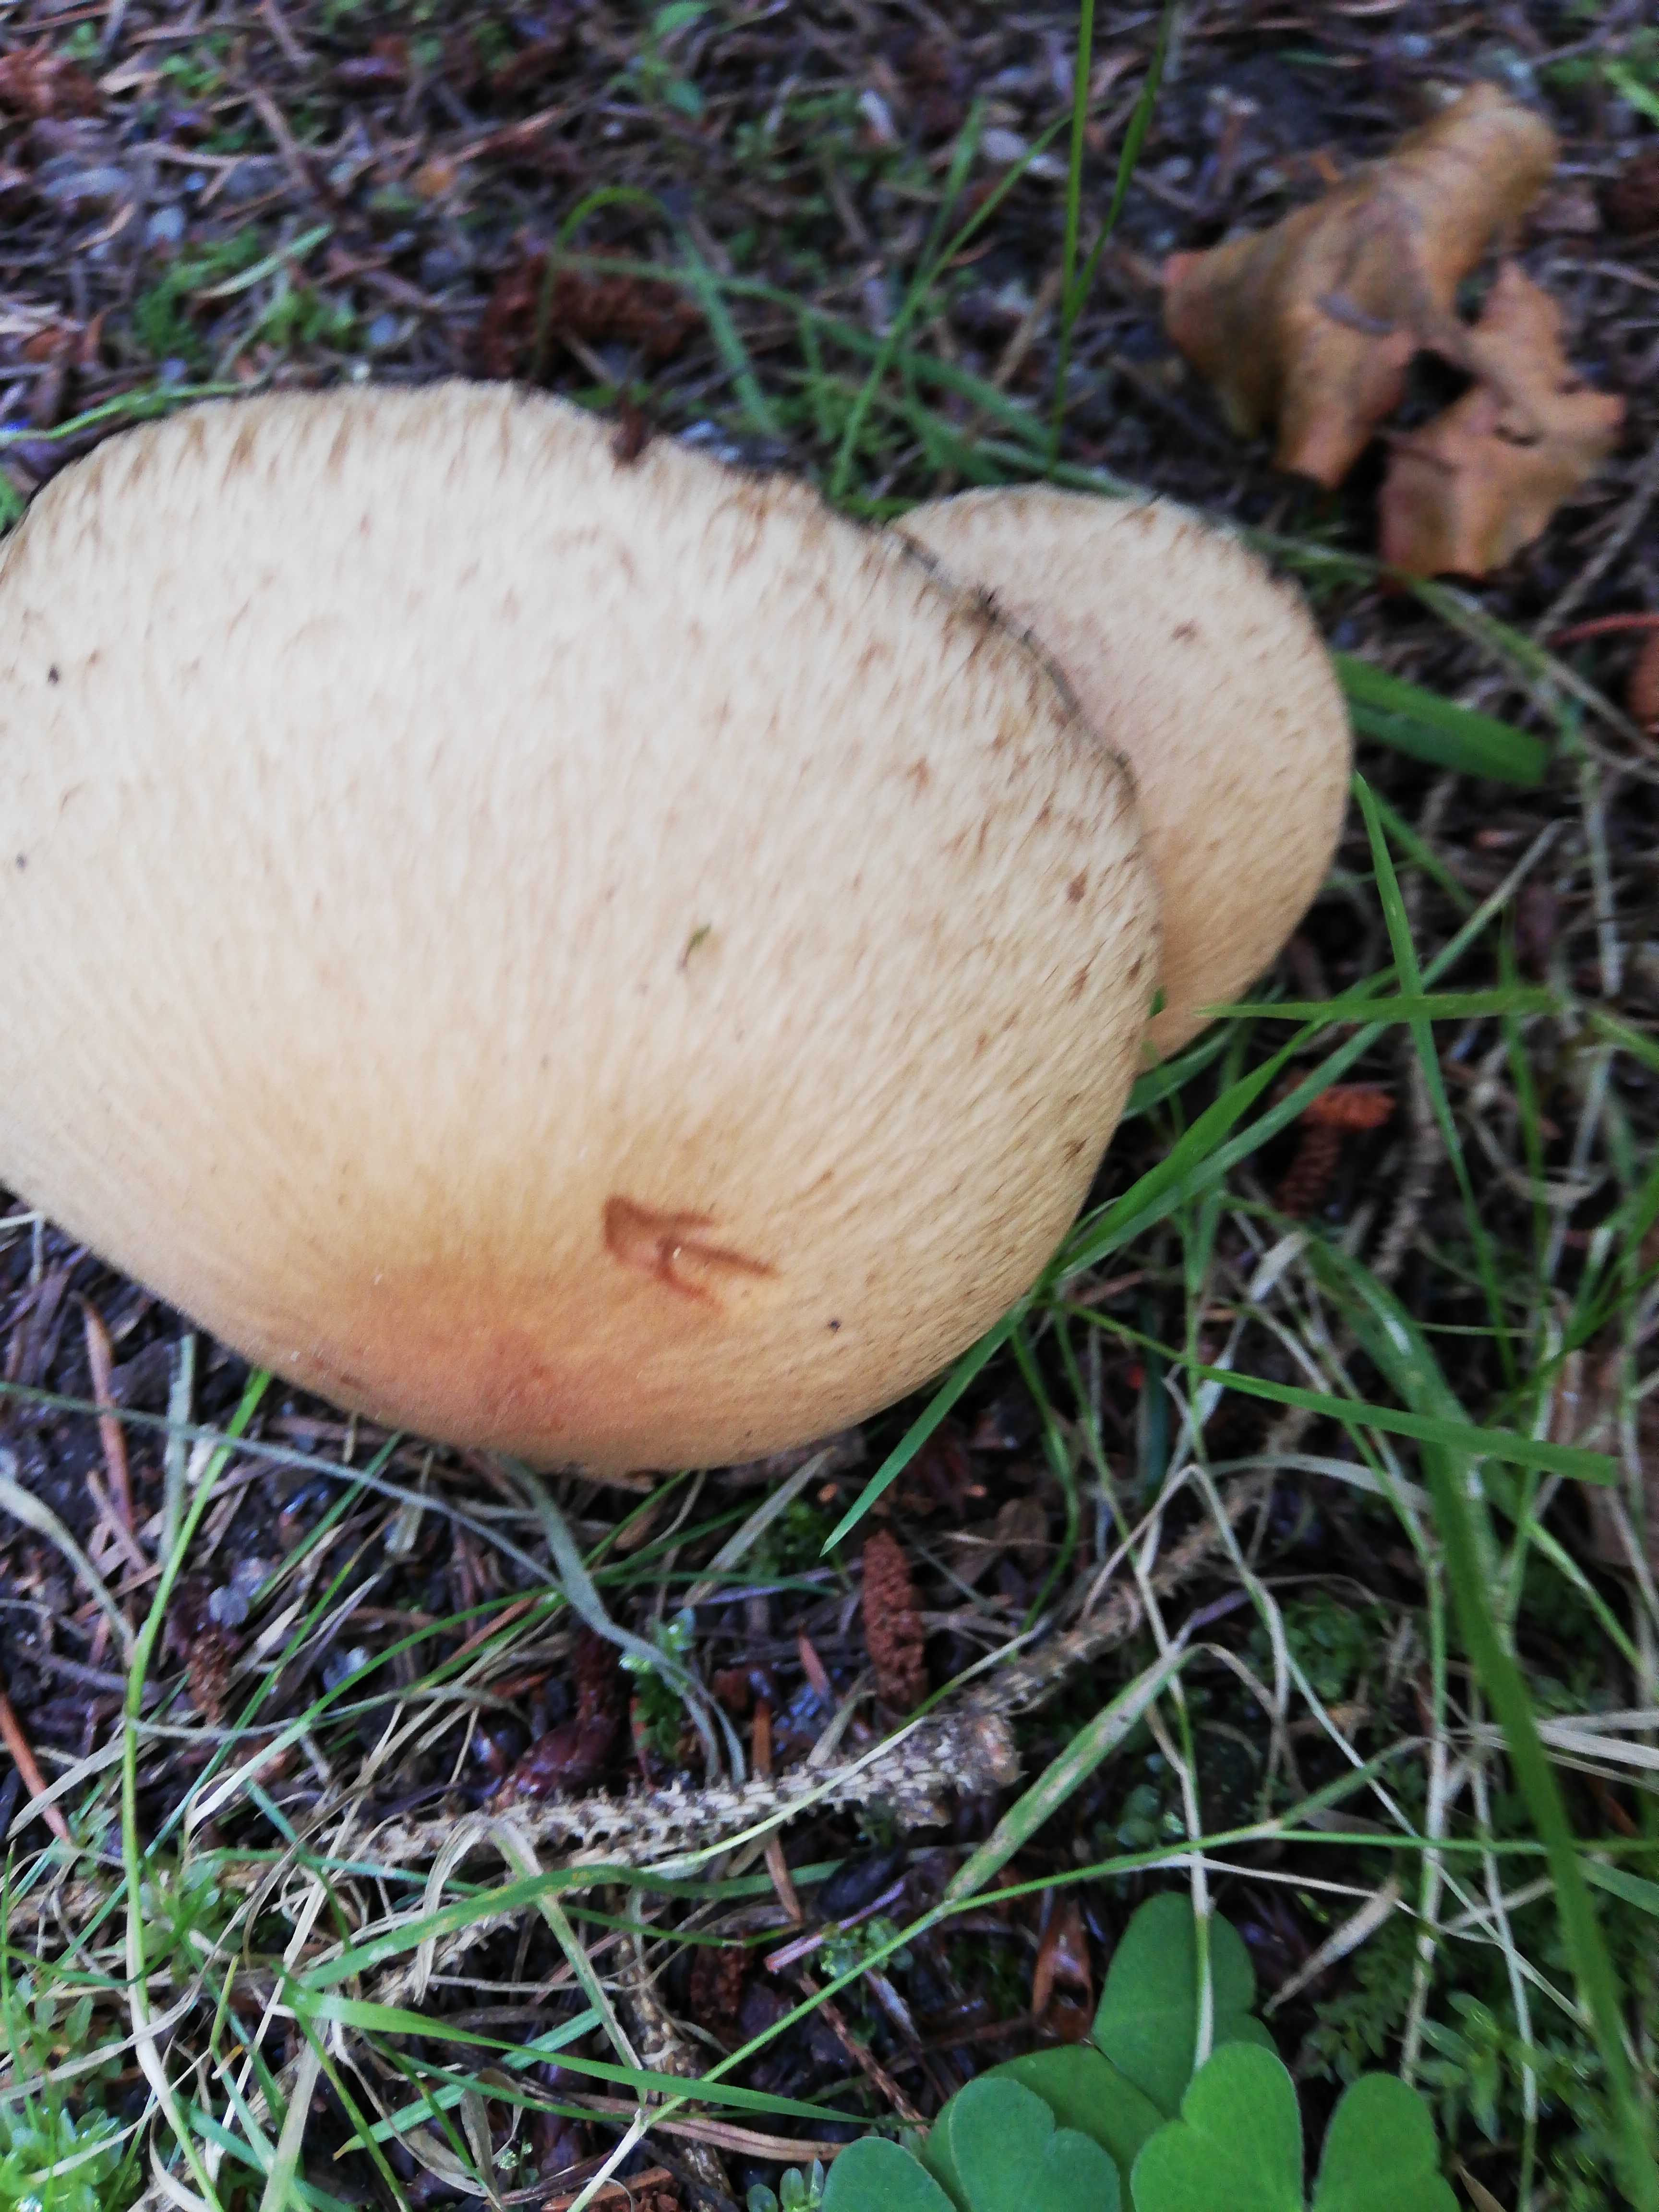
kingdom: Fungi
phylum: Basidiomycota
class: Agaricomycetes
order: Agaricales
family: Psathyrellaceae
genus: Lacrymaria
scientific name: Lacrymaria lacrymabunda
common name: grædende mørkhat
